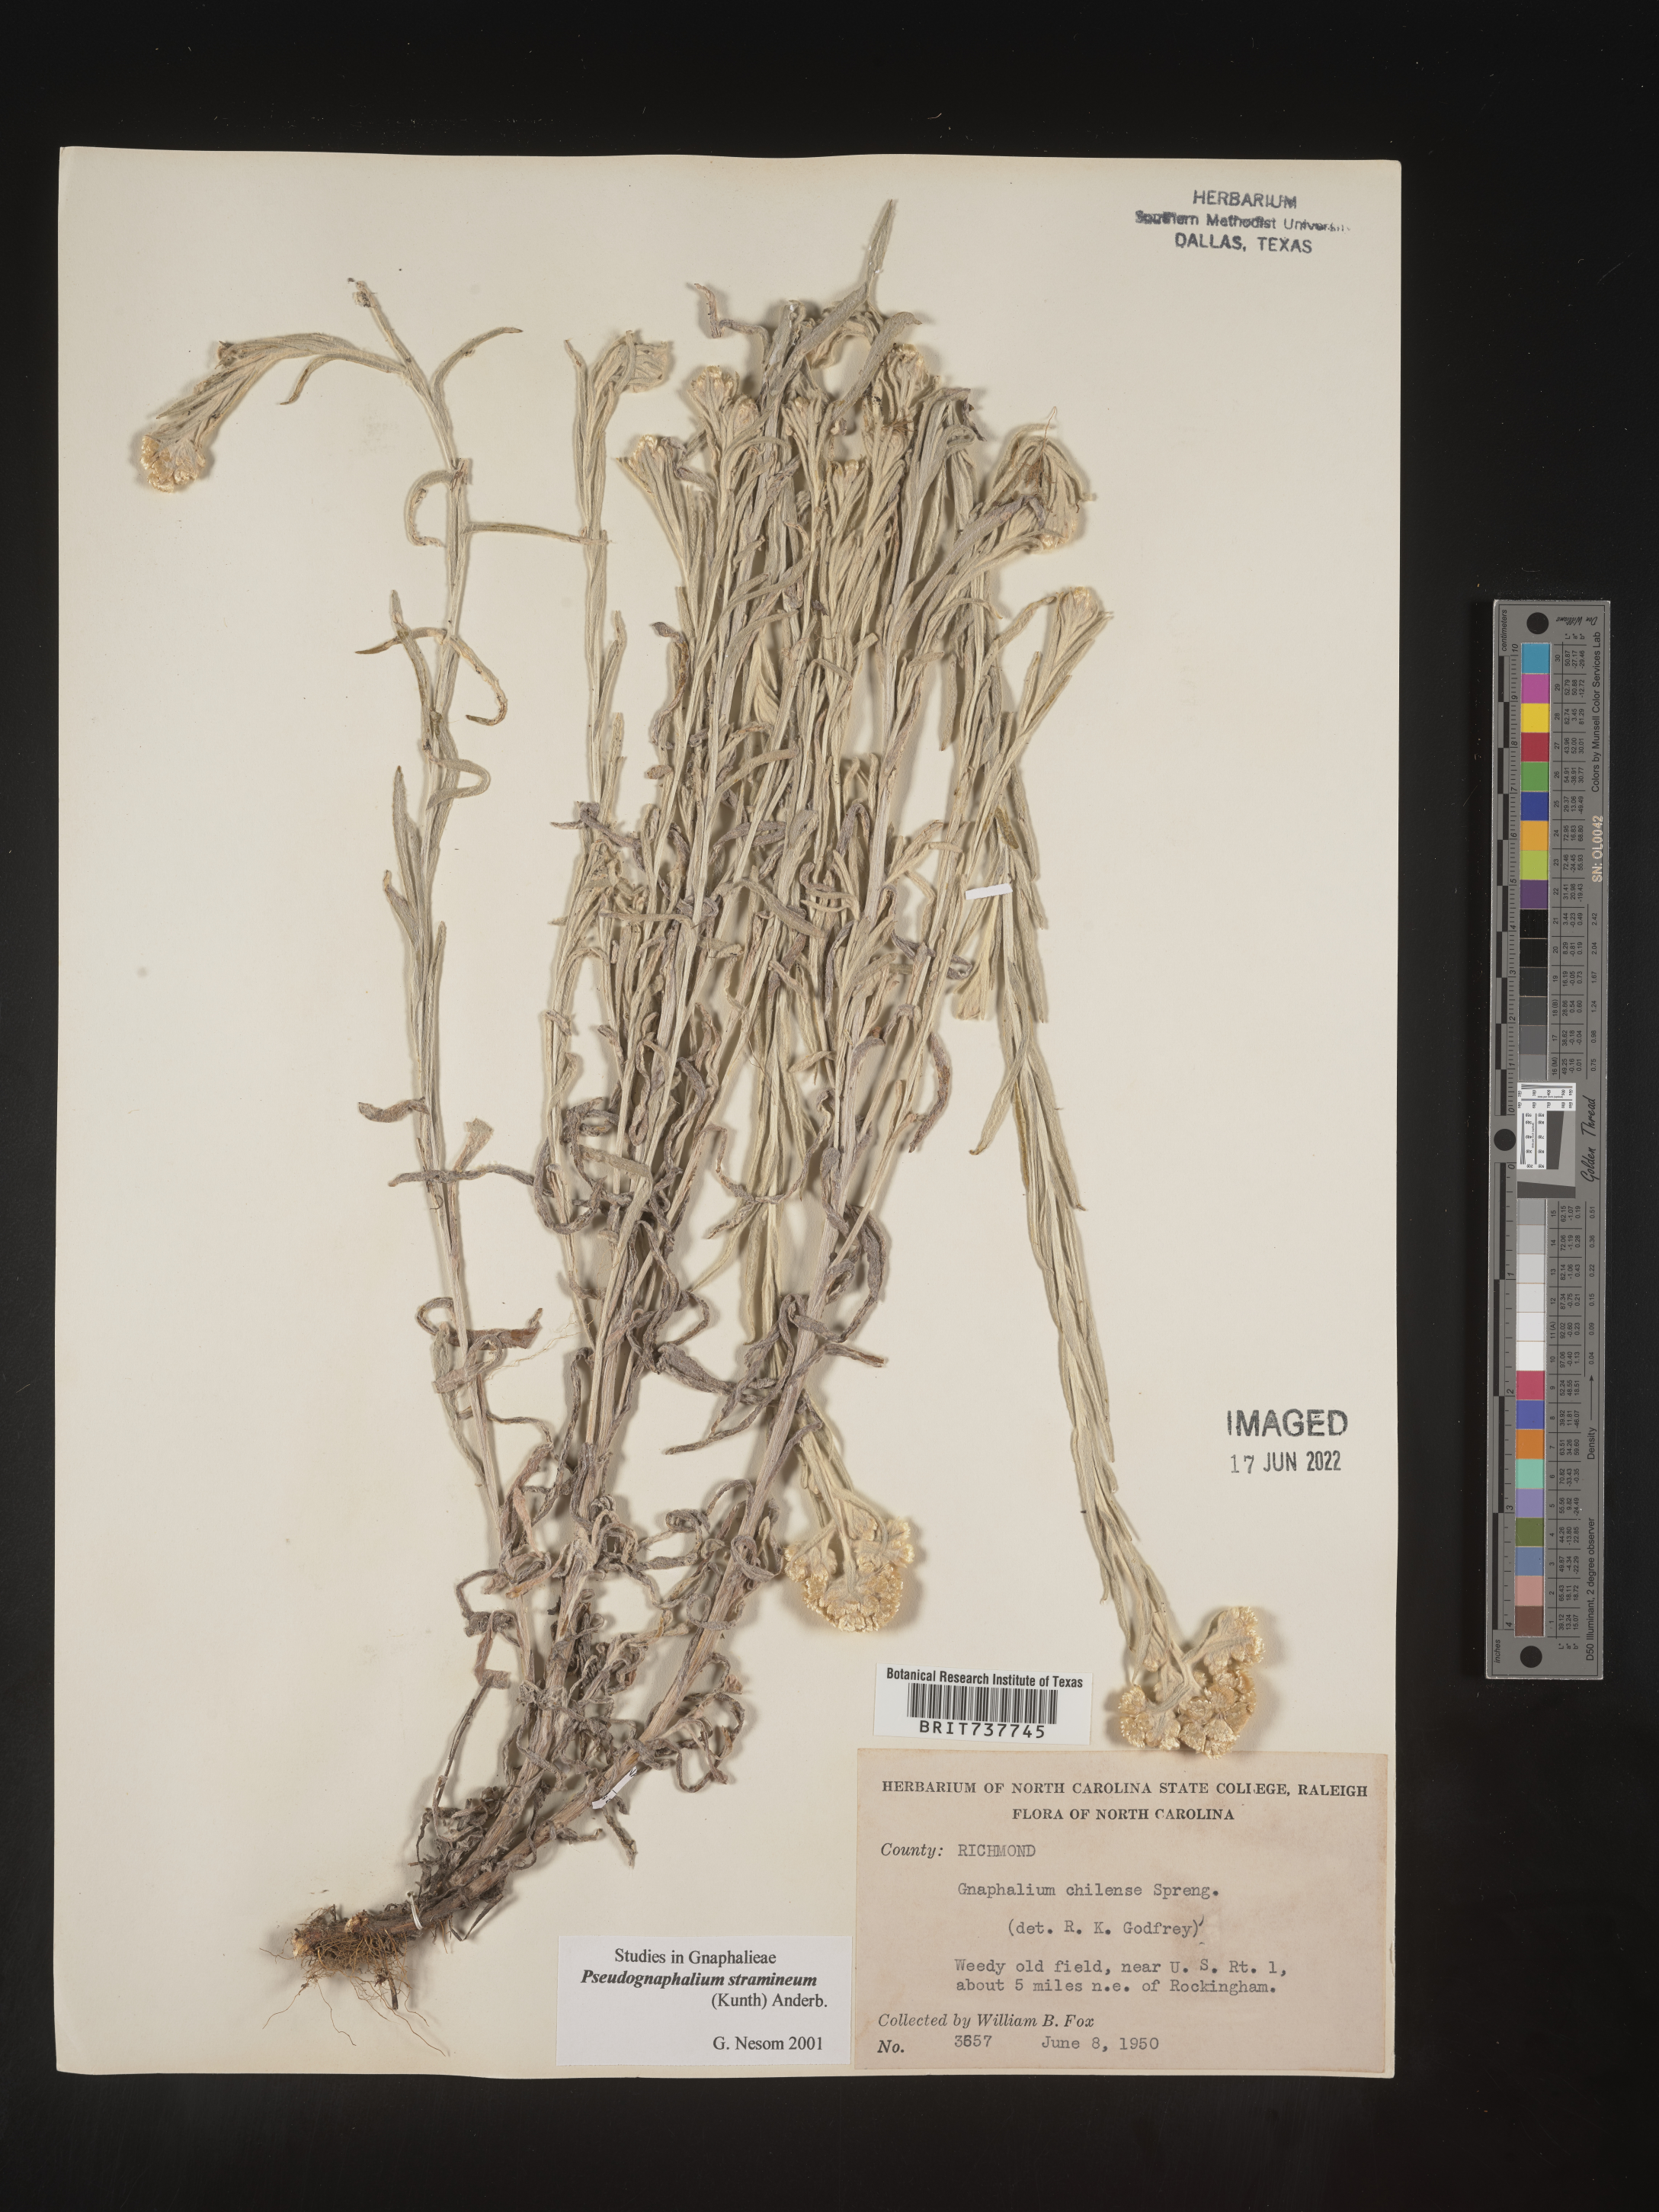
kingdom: Plantae
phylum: Tracheophyta
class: Magnoliopsida
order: Asterales
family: Asteraceae
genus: Pseudognaphalium
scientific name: Pseudognaphalium stramineum
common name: Cotton-batting-plant
